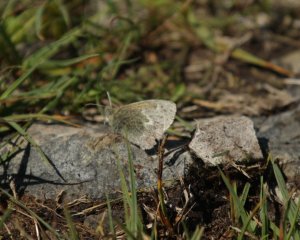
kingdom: Animalia
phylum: Arthropoda
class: Insecta
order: Lepidoptera
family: Nymphalidae
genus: Coenonympha
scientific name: Coenonympha tullia
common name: Large Heath
